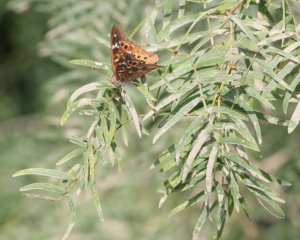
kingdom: Animalia
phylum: Arthropoda
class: Insecta
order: Lepidoptera
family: Nymphalidae
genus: Asterocampa
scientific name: Asterocampa leilia
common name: Empress Leilia
